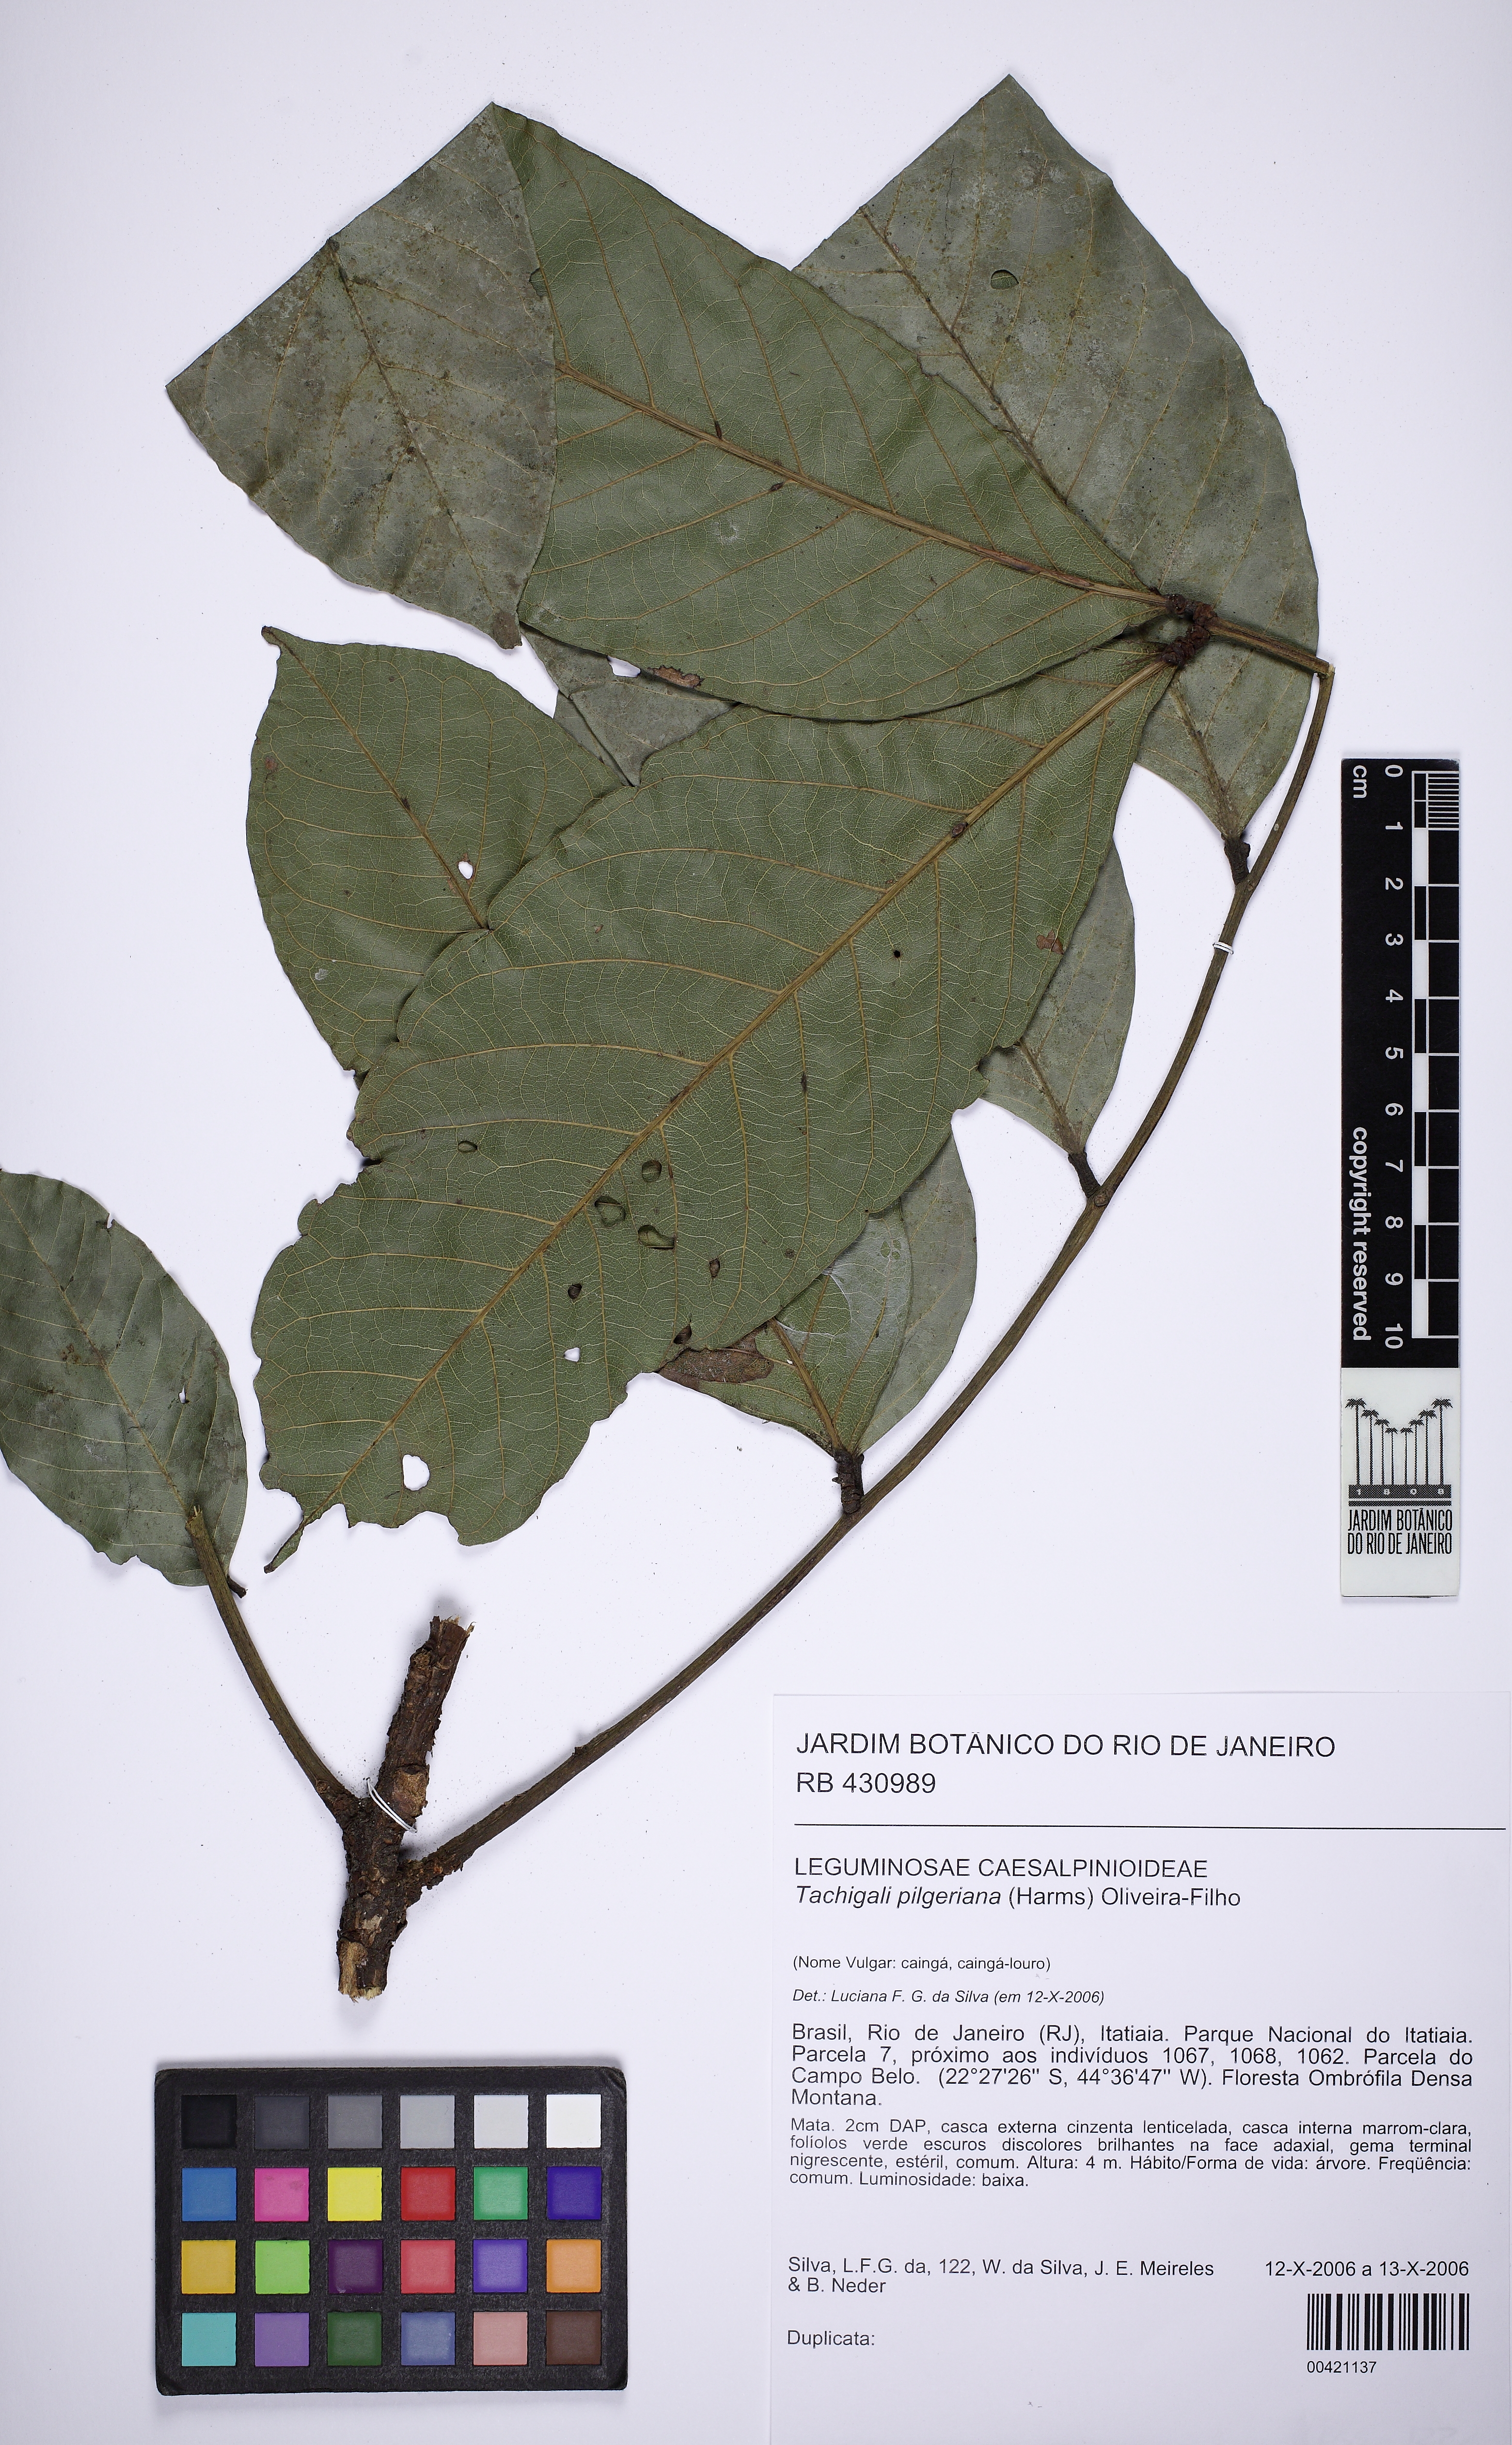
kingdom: Plantae
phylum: Tracheophyta
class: Magnoliopsida
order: Fabales
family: Fabaceae
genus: Tachigali
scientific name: Tachigali pilgeriana
